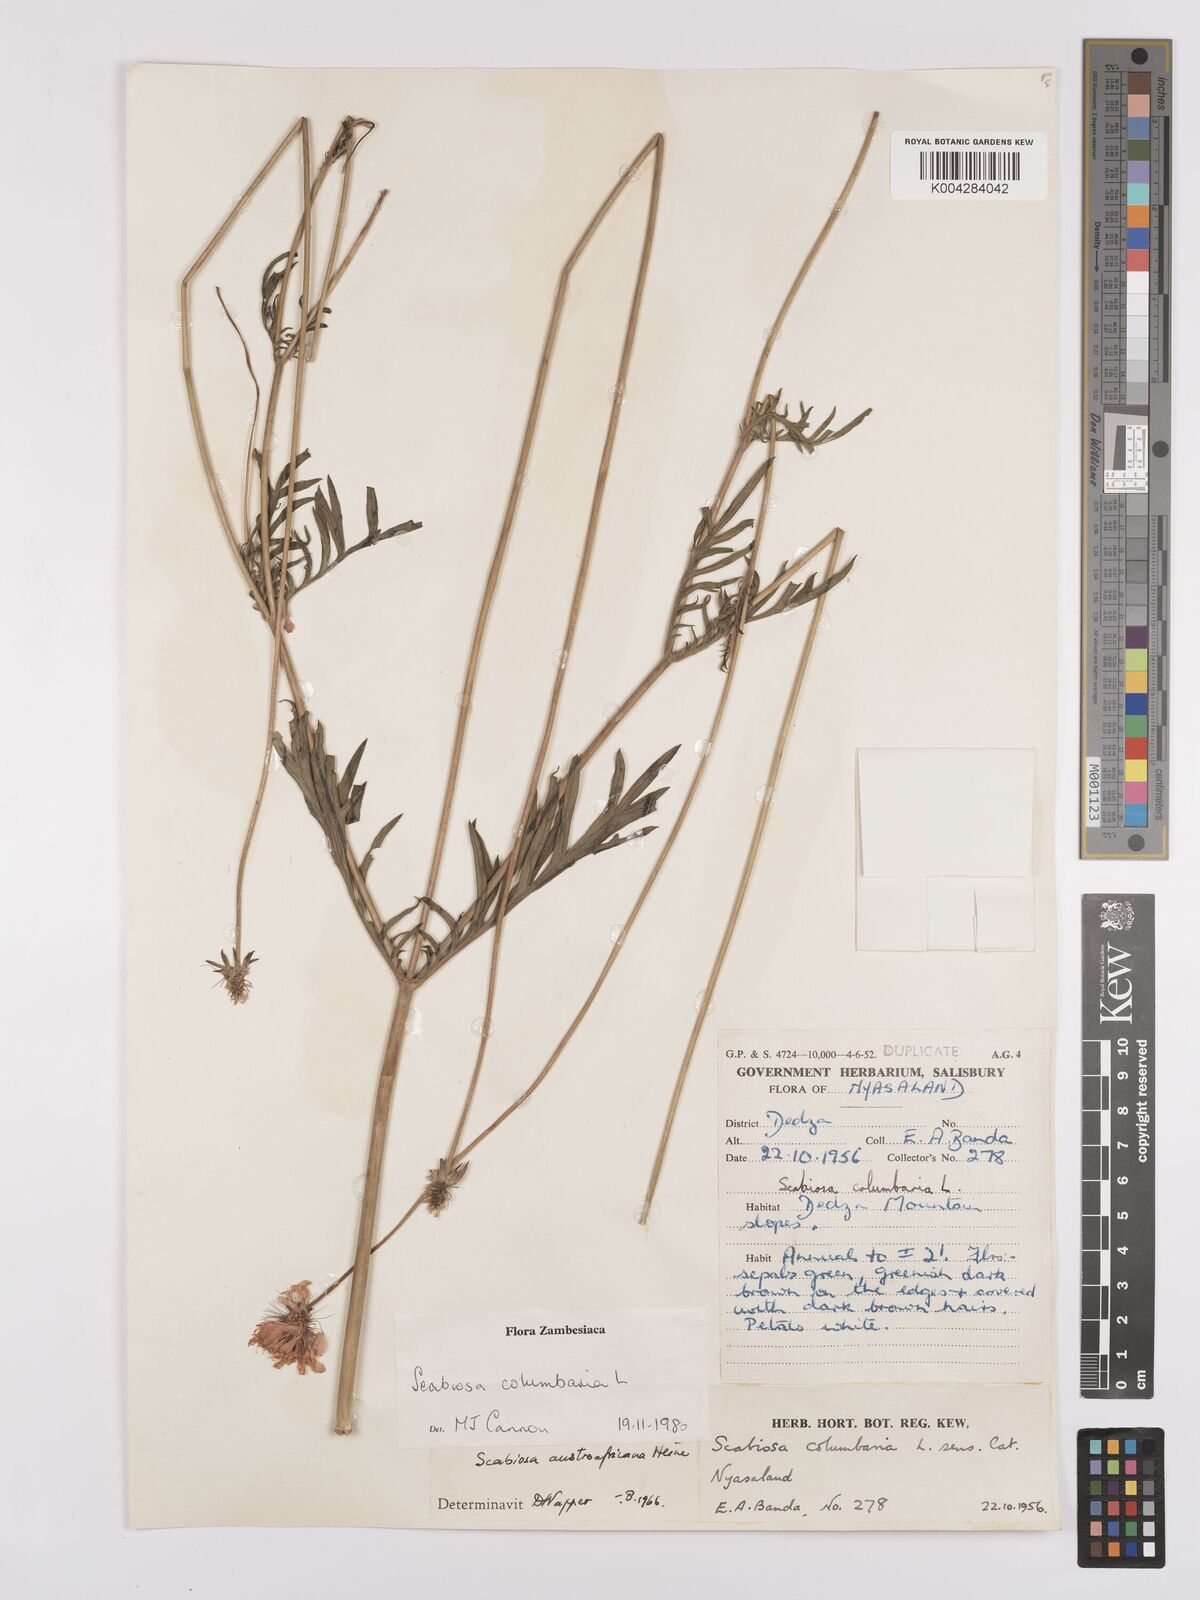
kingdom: Plantae
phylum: Tracheophyta
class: Magnoliopsida
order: Dipsacales
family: Caprifoliaceae
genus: Scabiosa
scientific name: Scabiosa austroafricana
